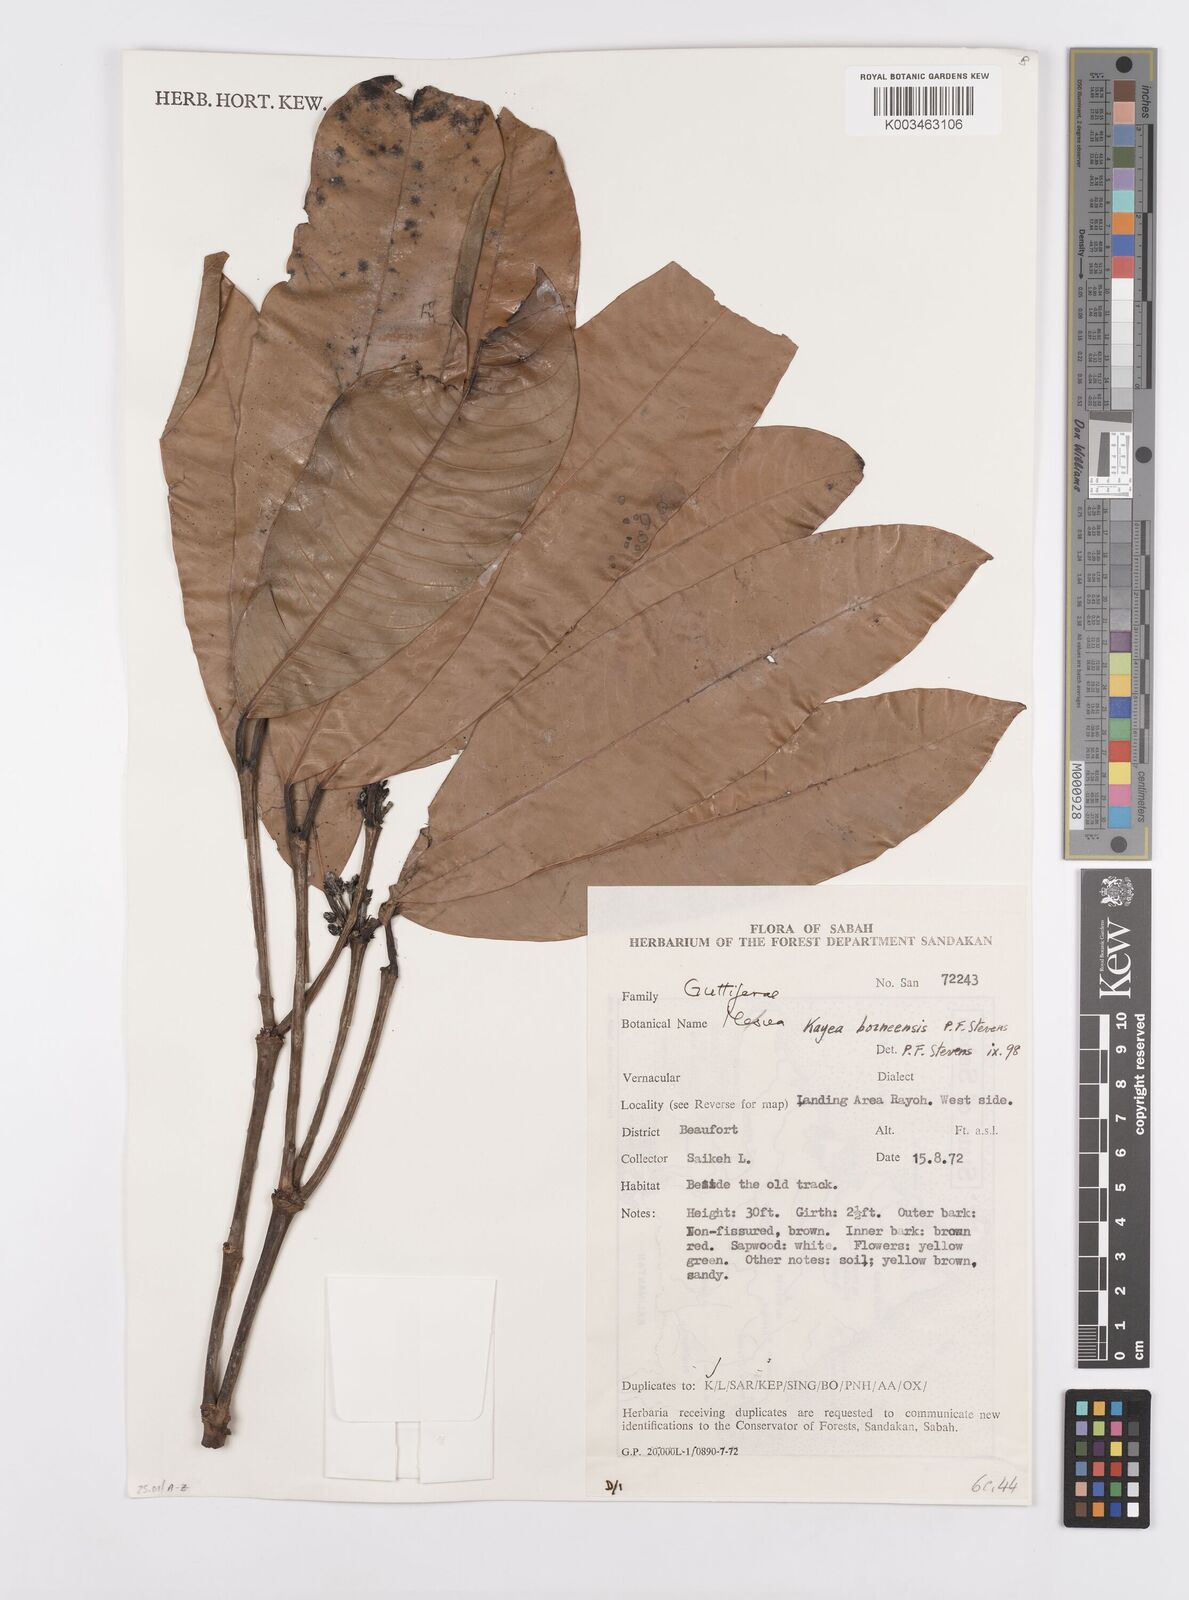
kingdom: Plantae
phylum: Tracheophyta
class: Magnoliopsida
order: Malpighiales
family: Calophyllaceae
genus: Kayea
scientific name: Kayea borneensis
